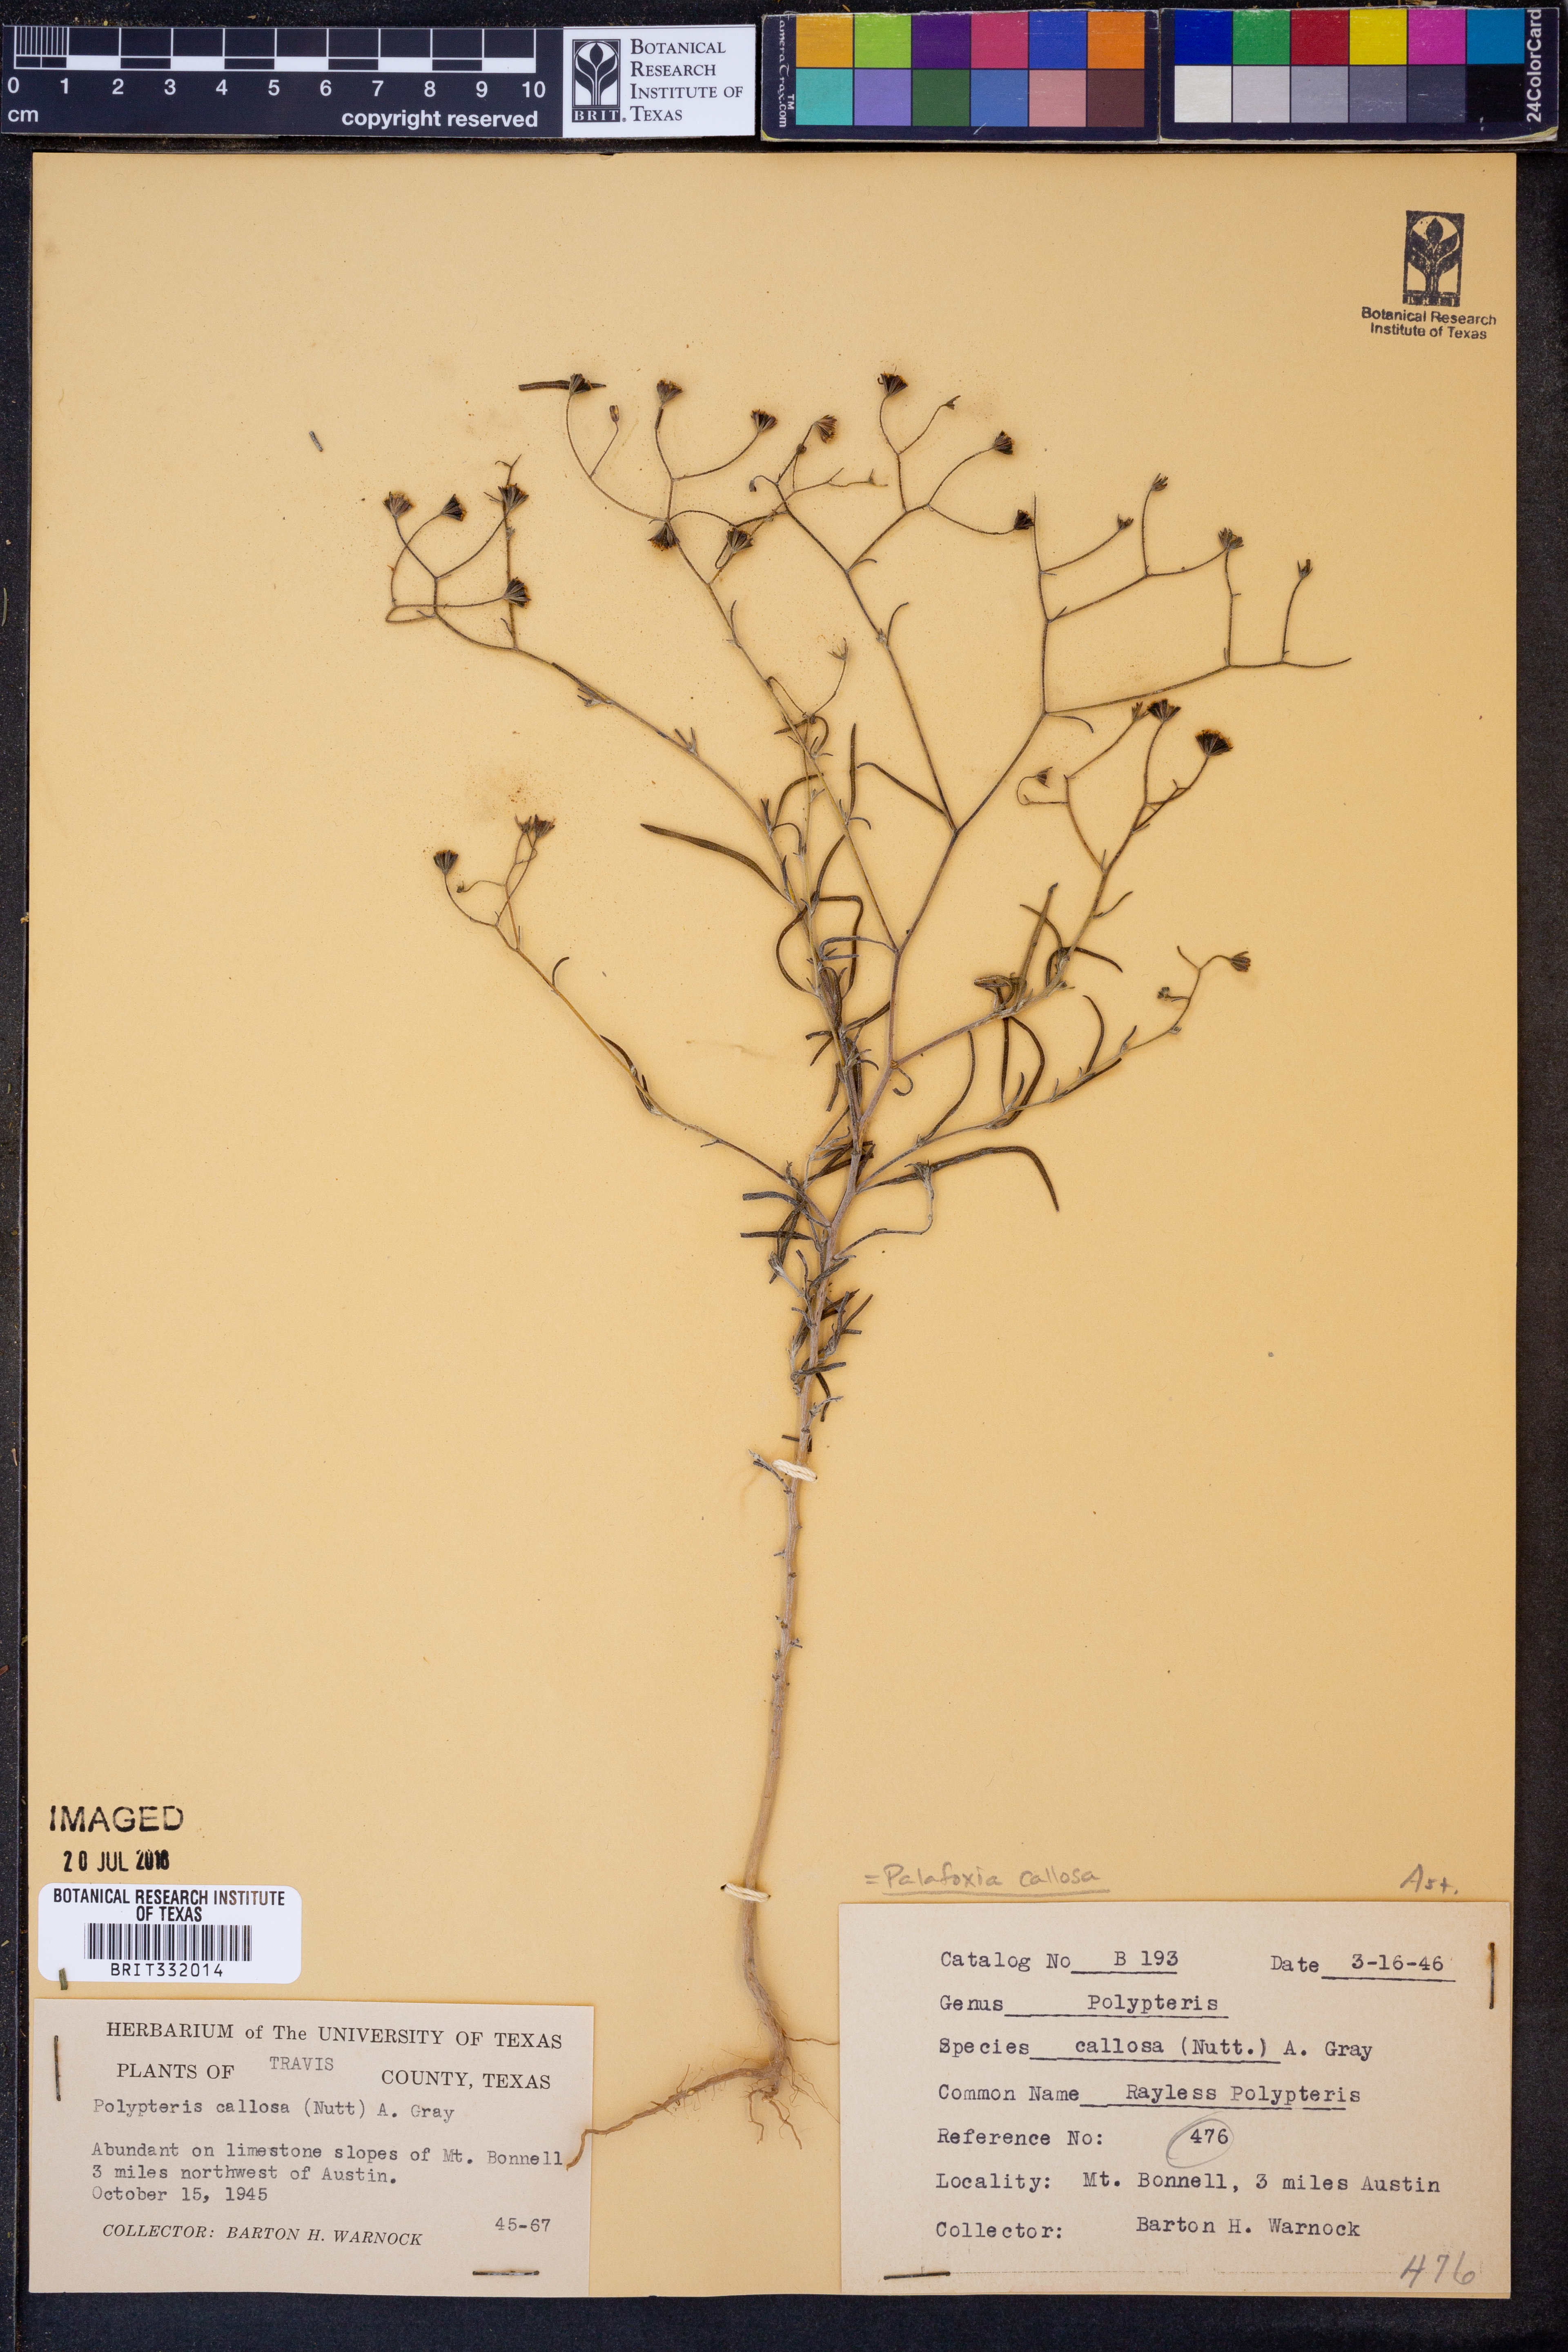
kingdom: Plantae
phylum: Tracheophyta
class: Magnoliopsida
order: Asterales
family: Asteraceae
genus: Palafoxia
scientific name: Palafoxia callosa
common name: Small palafox
